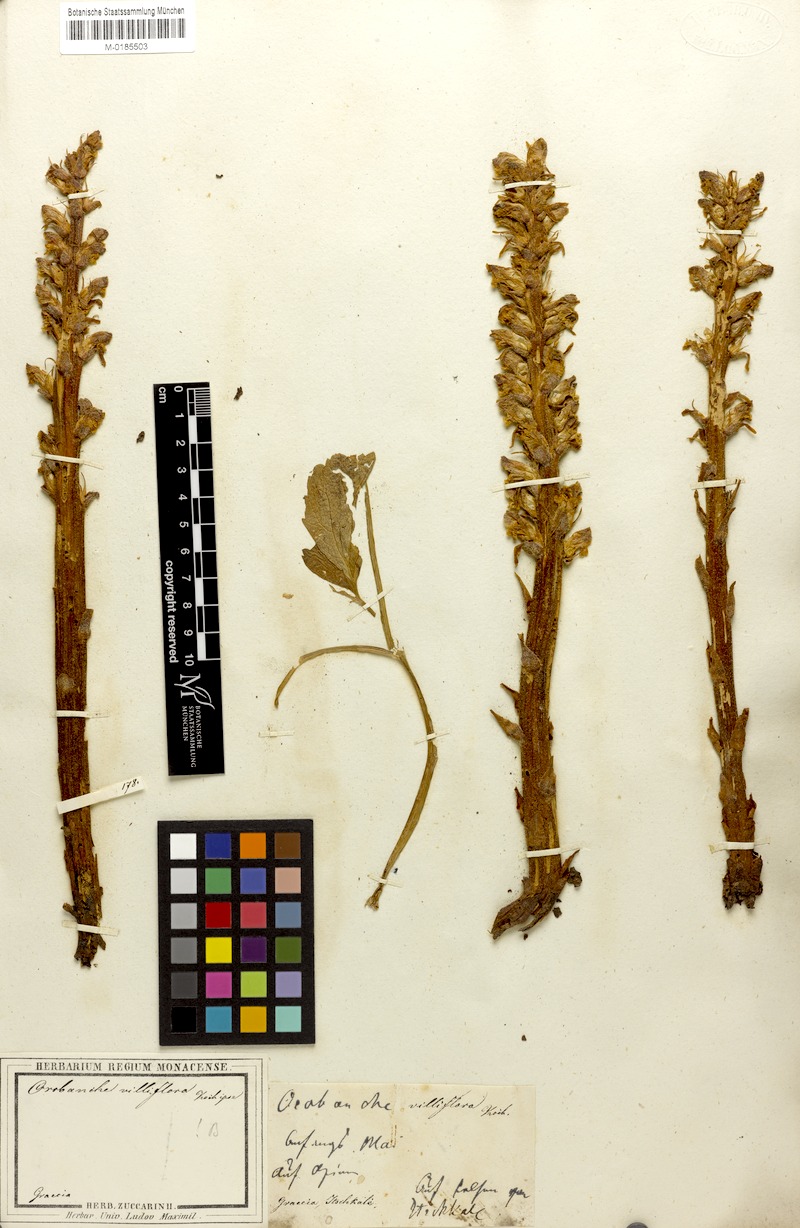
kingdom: Plantae
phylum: Tracheophyta
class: Magnoliopsida
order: Lamiales
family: Orobanchaceae
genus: Orobanche
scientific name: Orobanche pubescens
